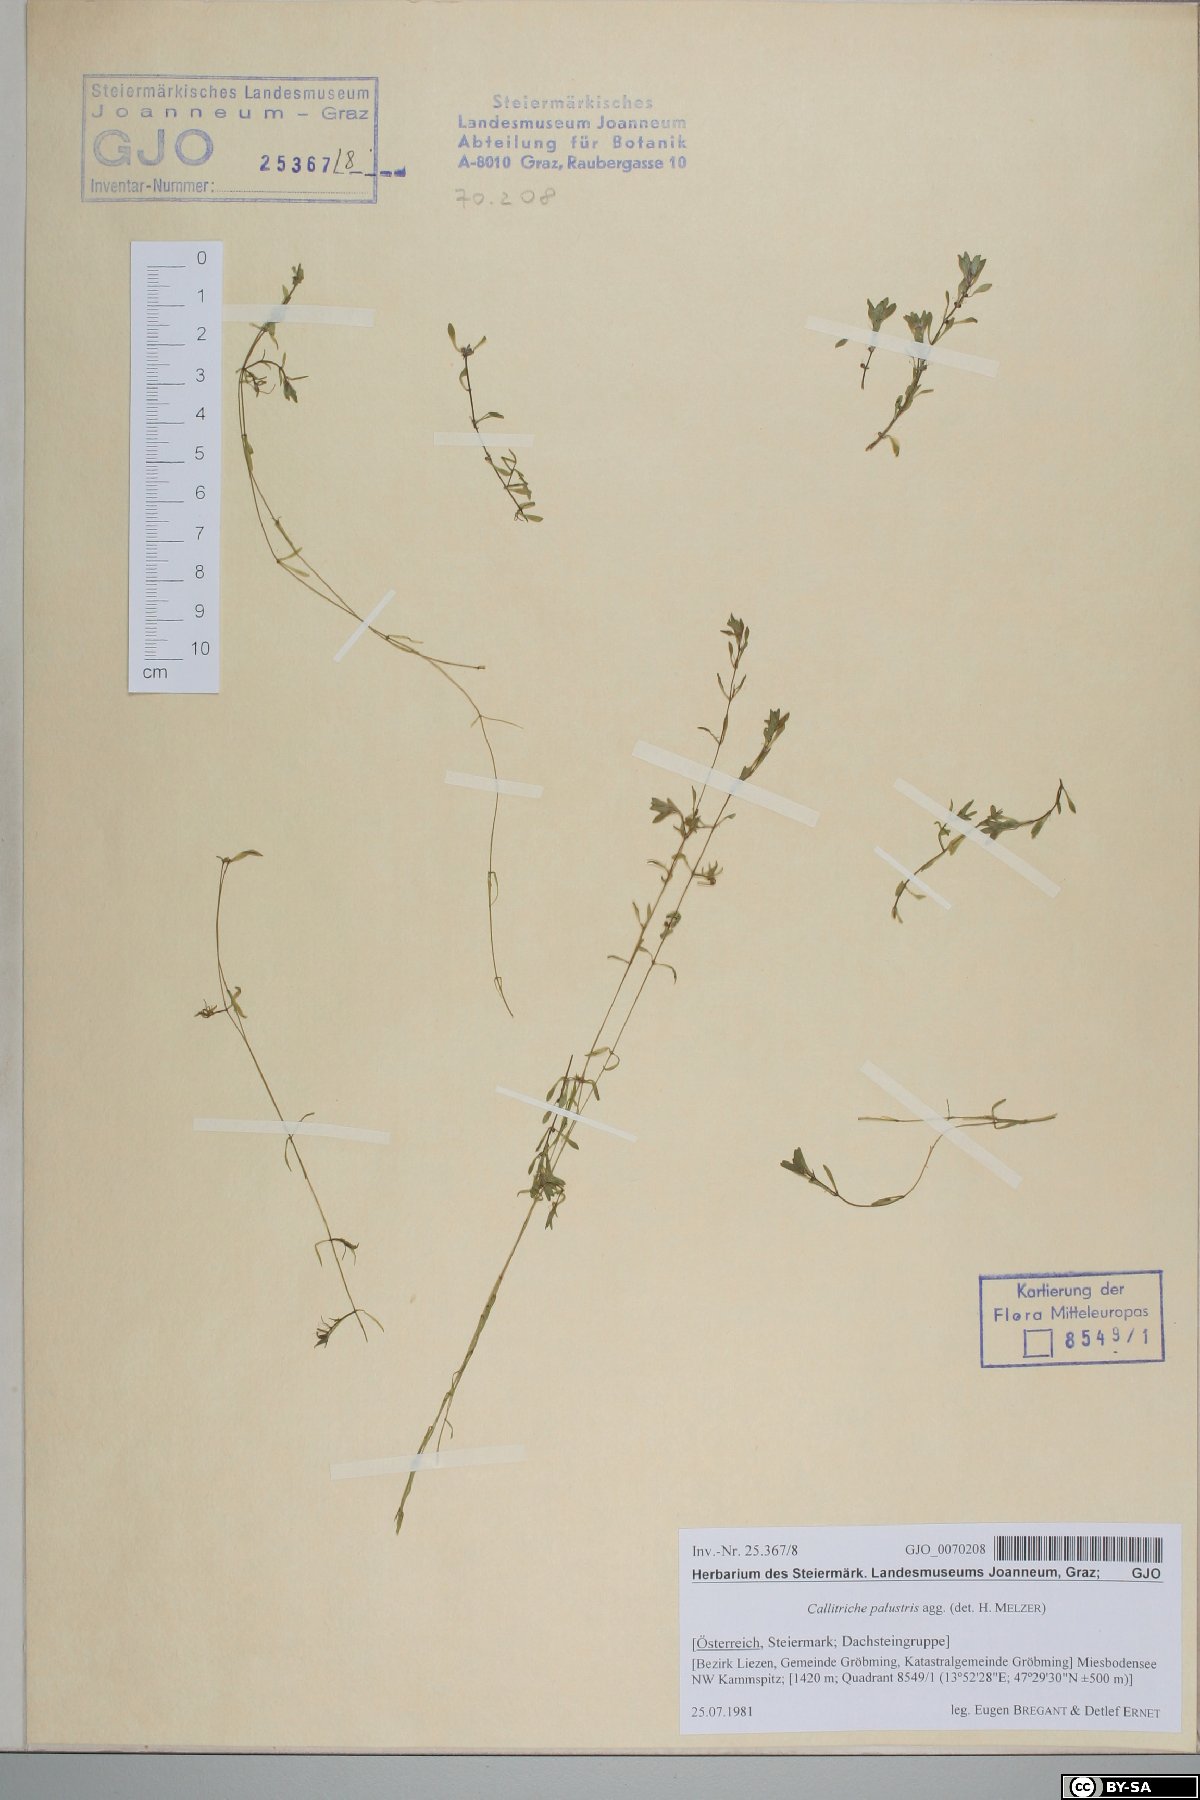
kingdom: Plantae
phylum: Tracheophyta
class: Magnoliopsida
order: Lamiales
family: Plantaginaceae
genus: Callitriche
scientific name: Callitriche palustris
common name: Spring water-starwort
